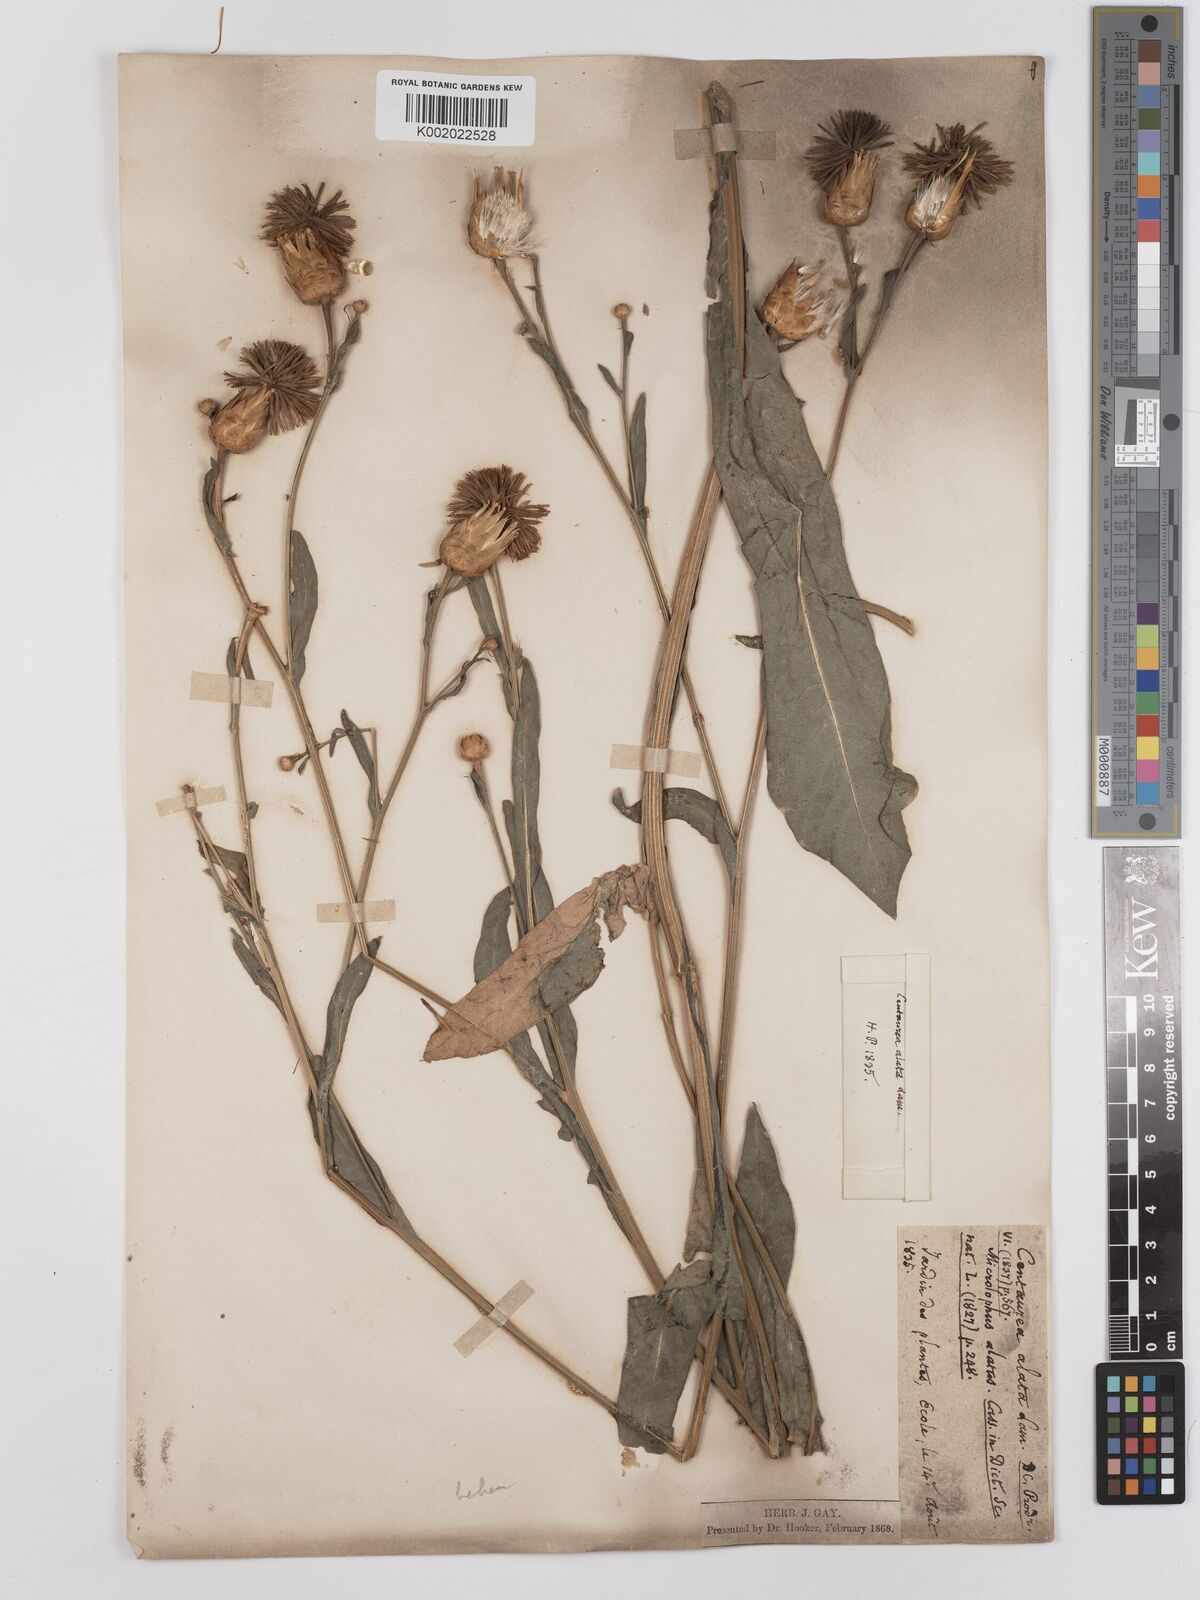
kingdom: Plantae
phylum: Tracheophyta
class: Magnoliopsida
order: Asterales
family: Asteraceae
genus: Klasea
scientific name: Klasea cerinthifolia
